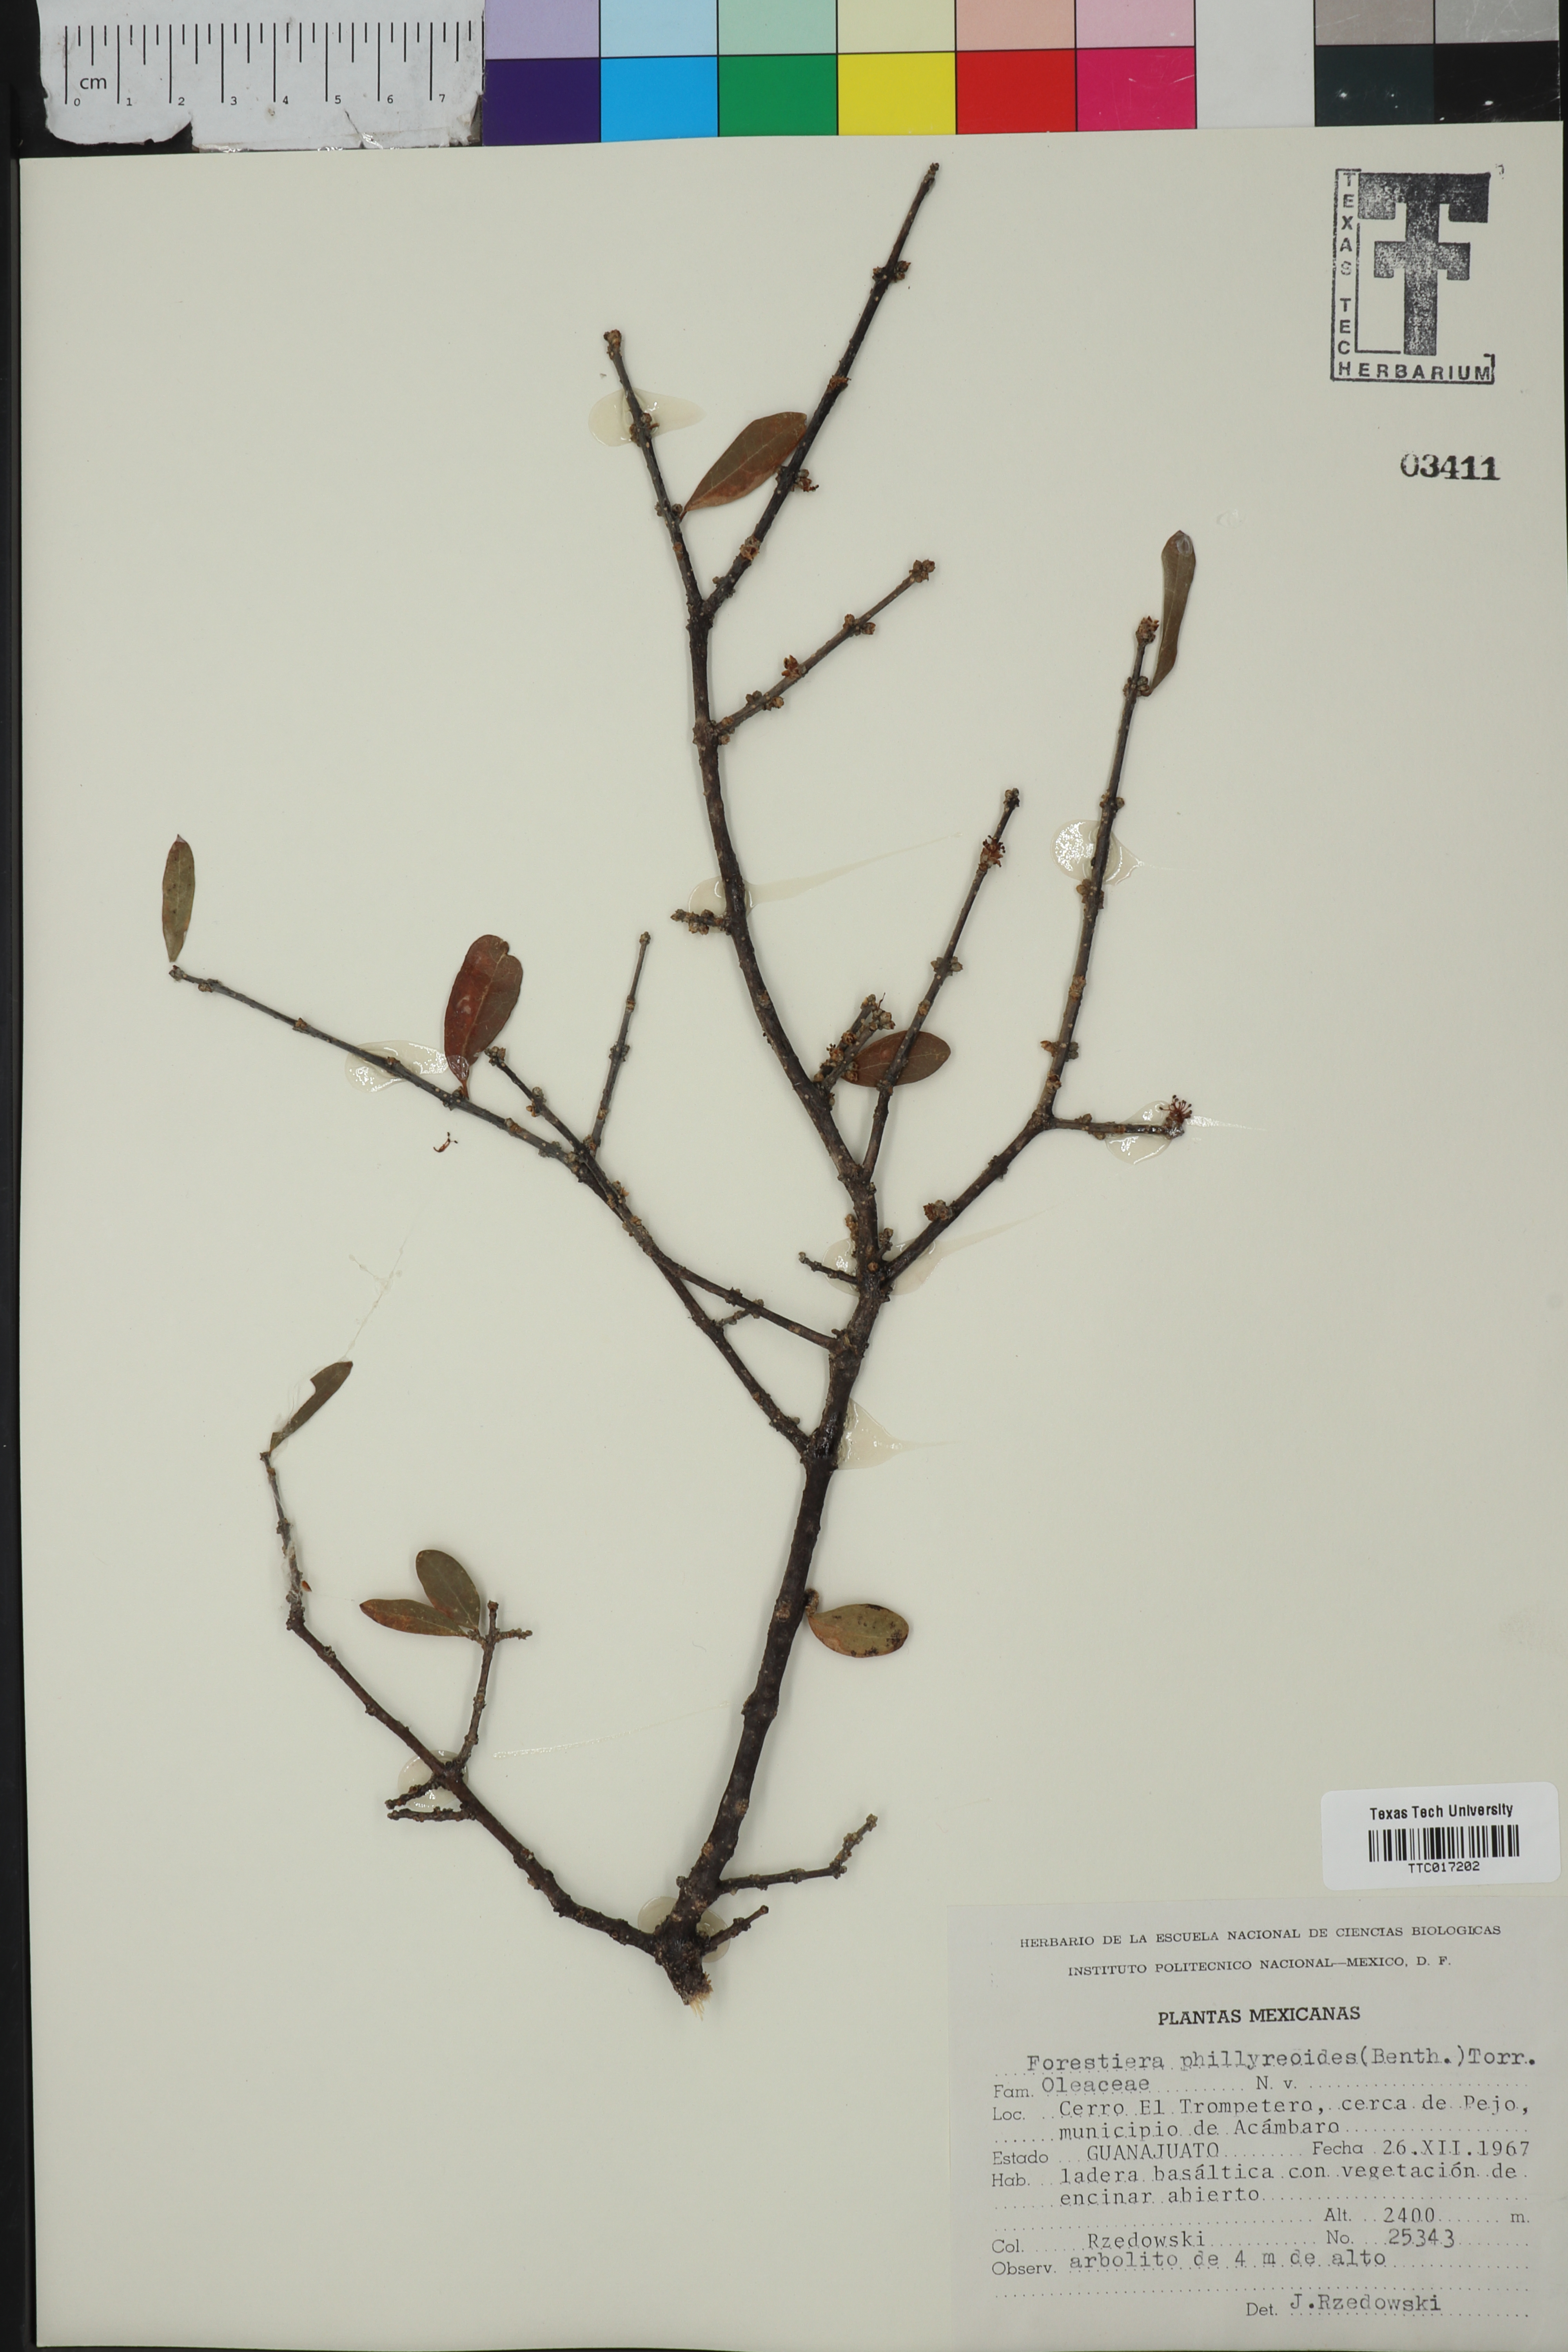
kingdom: Plantae
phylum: Tracheophyta
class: Magnoliopsida
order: Lamiales
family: Oleaceae
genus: Forestiera
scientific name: Forestiera phillyreoides
